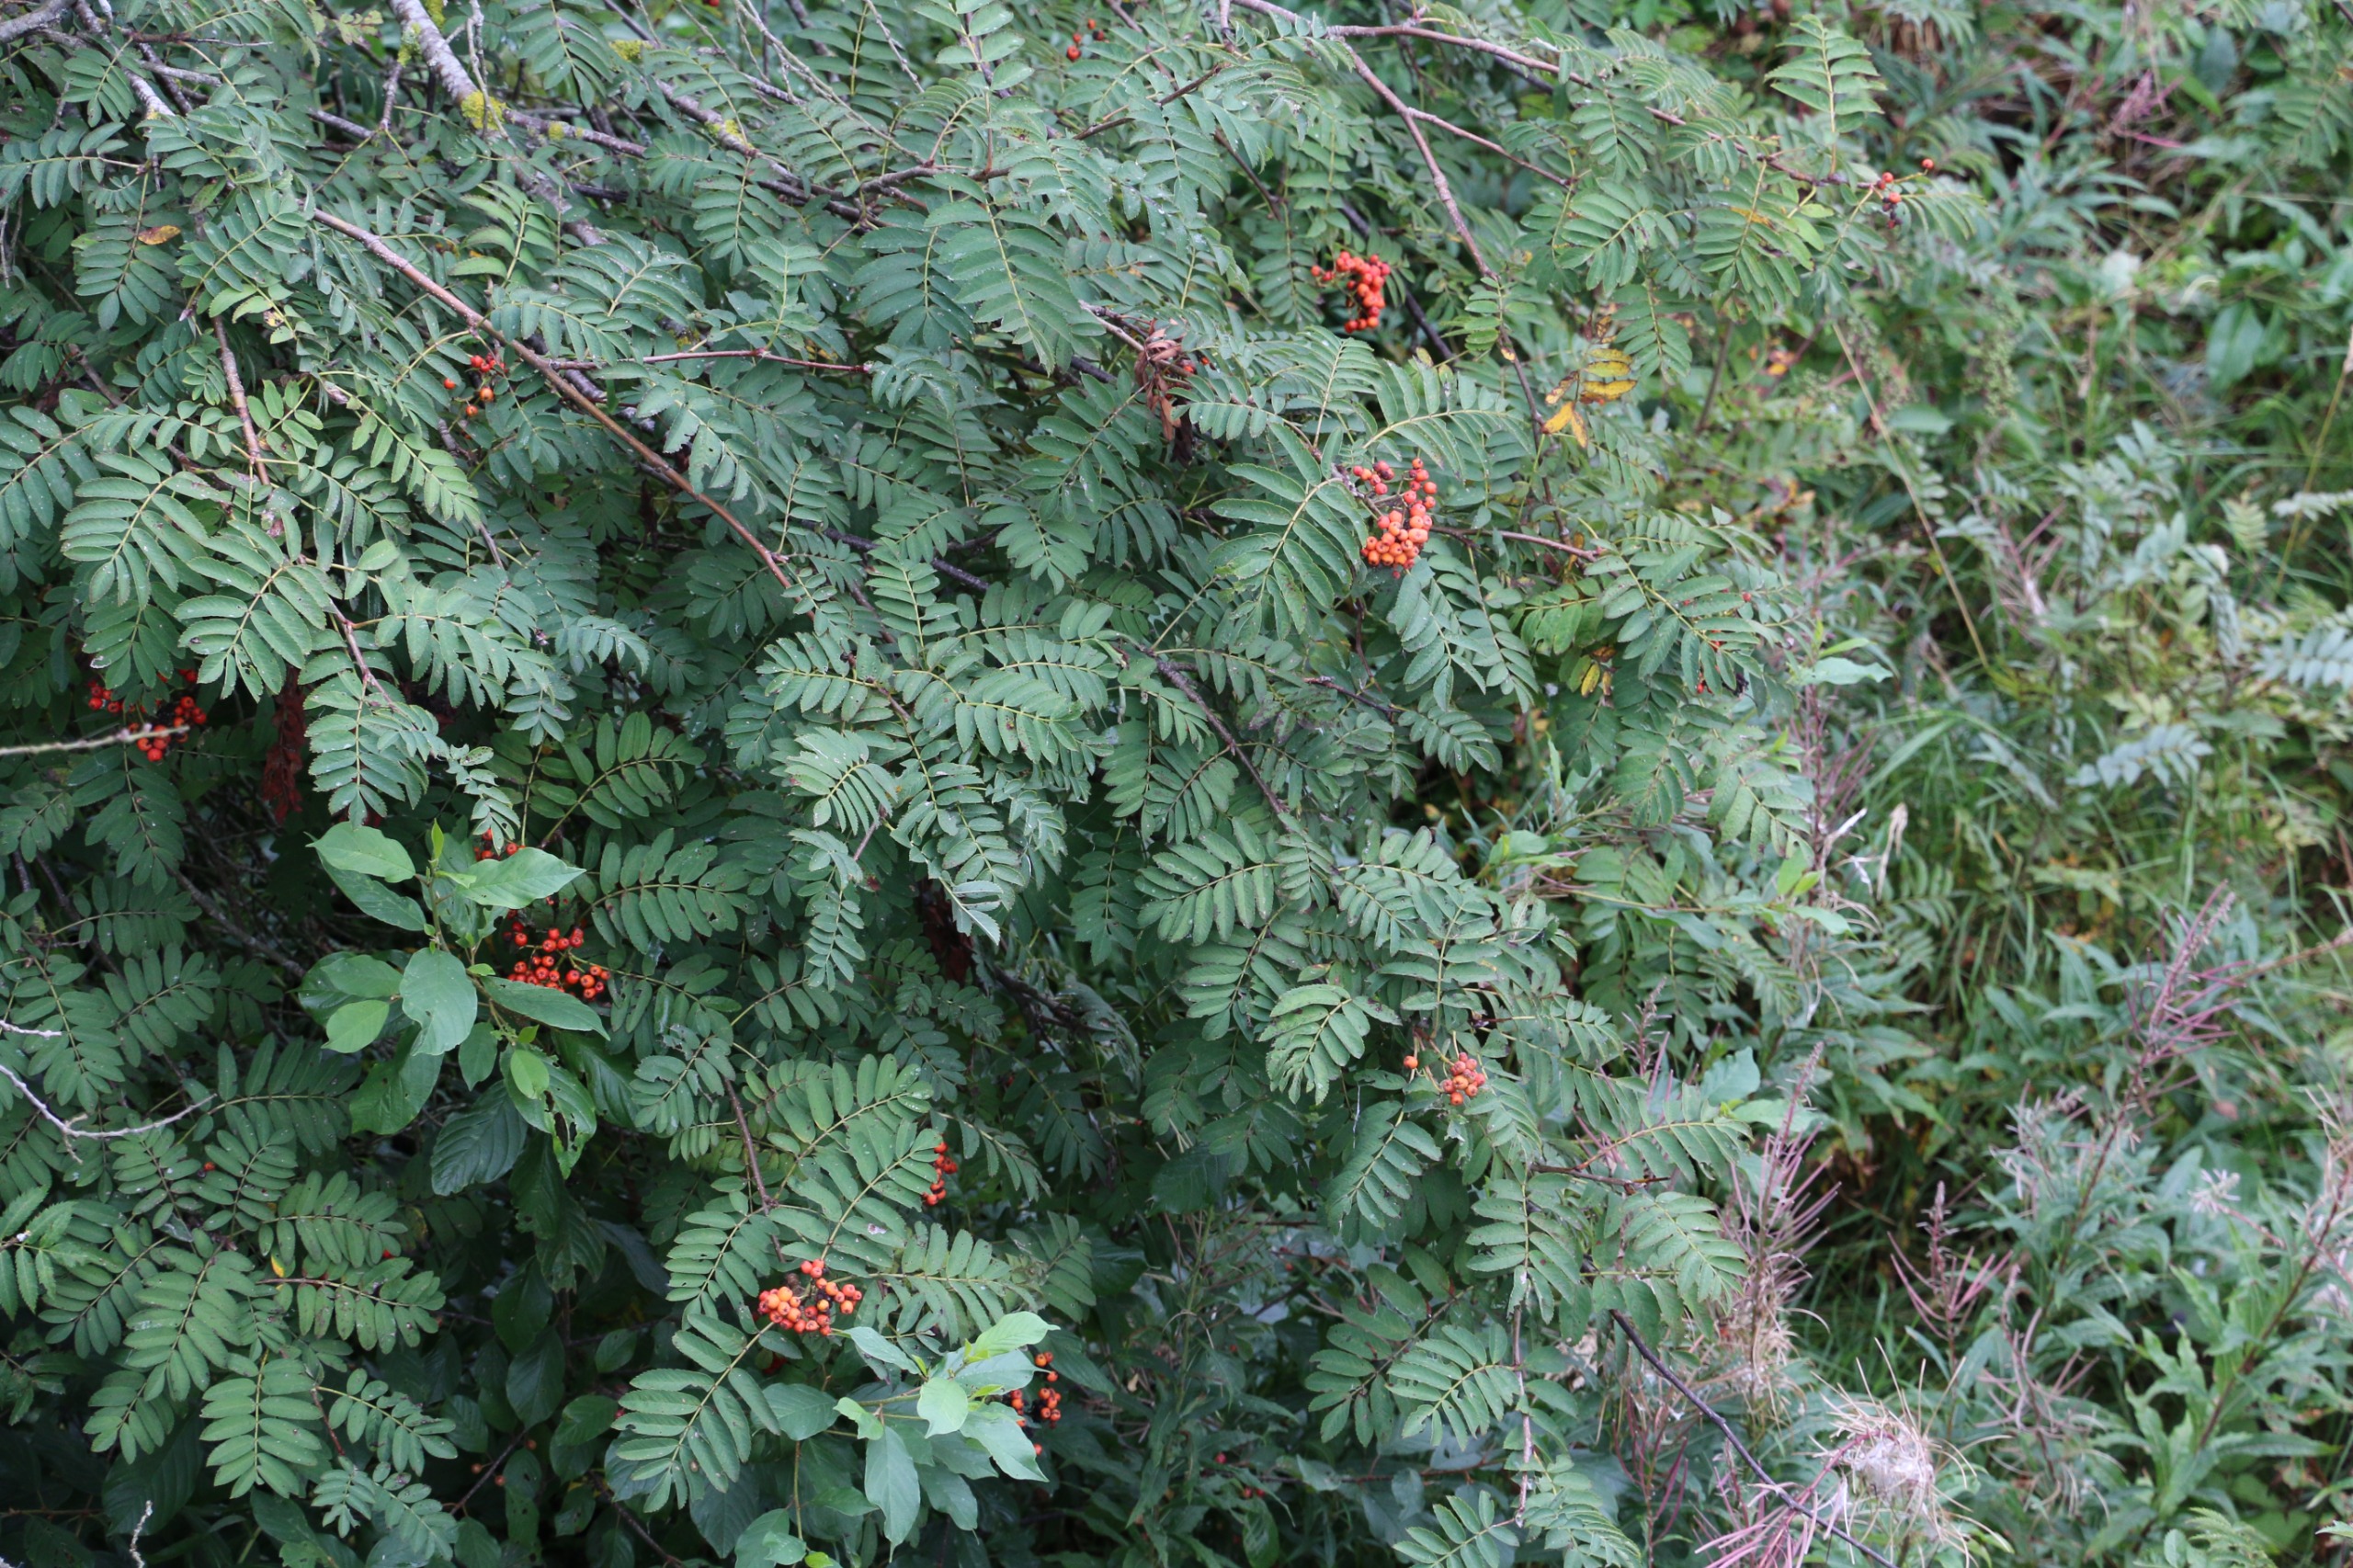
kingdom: Plantae
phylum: Tracheophyta
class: Magnoliopsida
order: Rosales
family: Rosaceae
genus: Sorbus
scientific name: Sorbus aucuparia
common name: Almindelig røn
